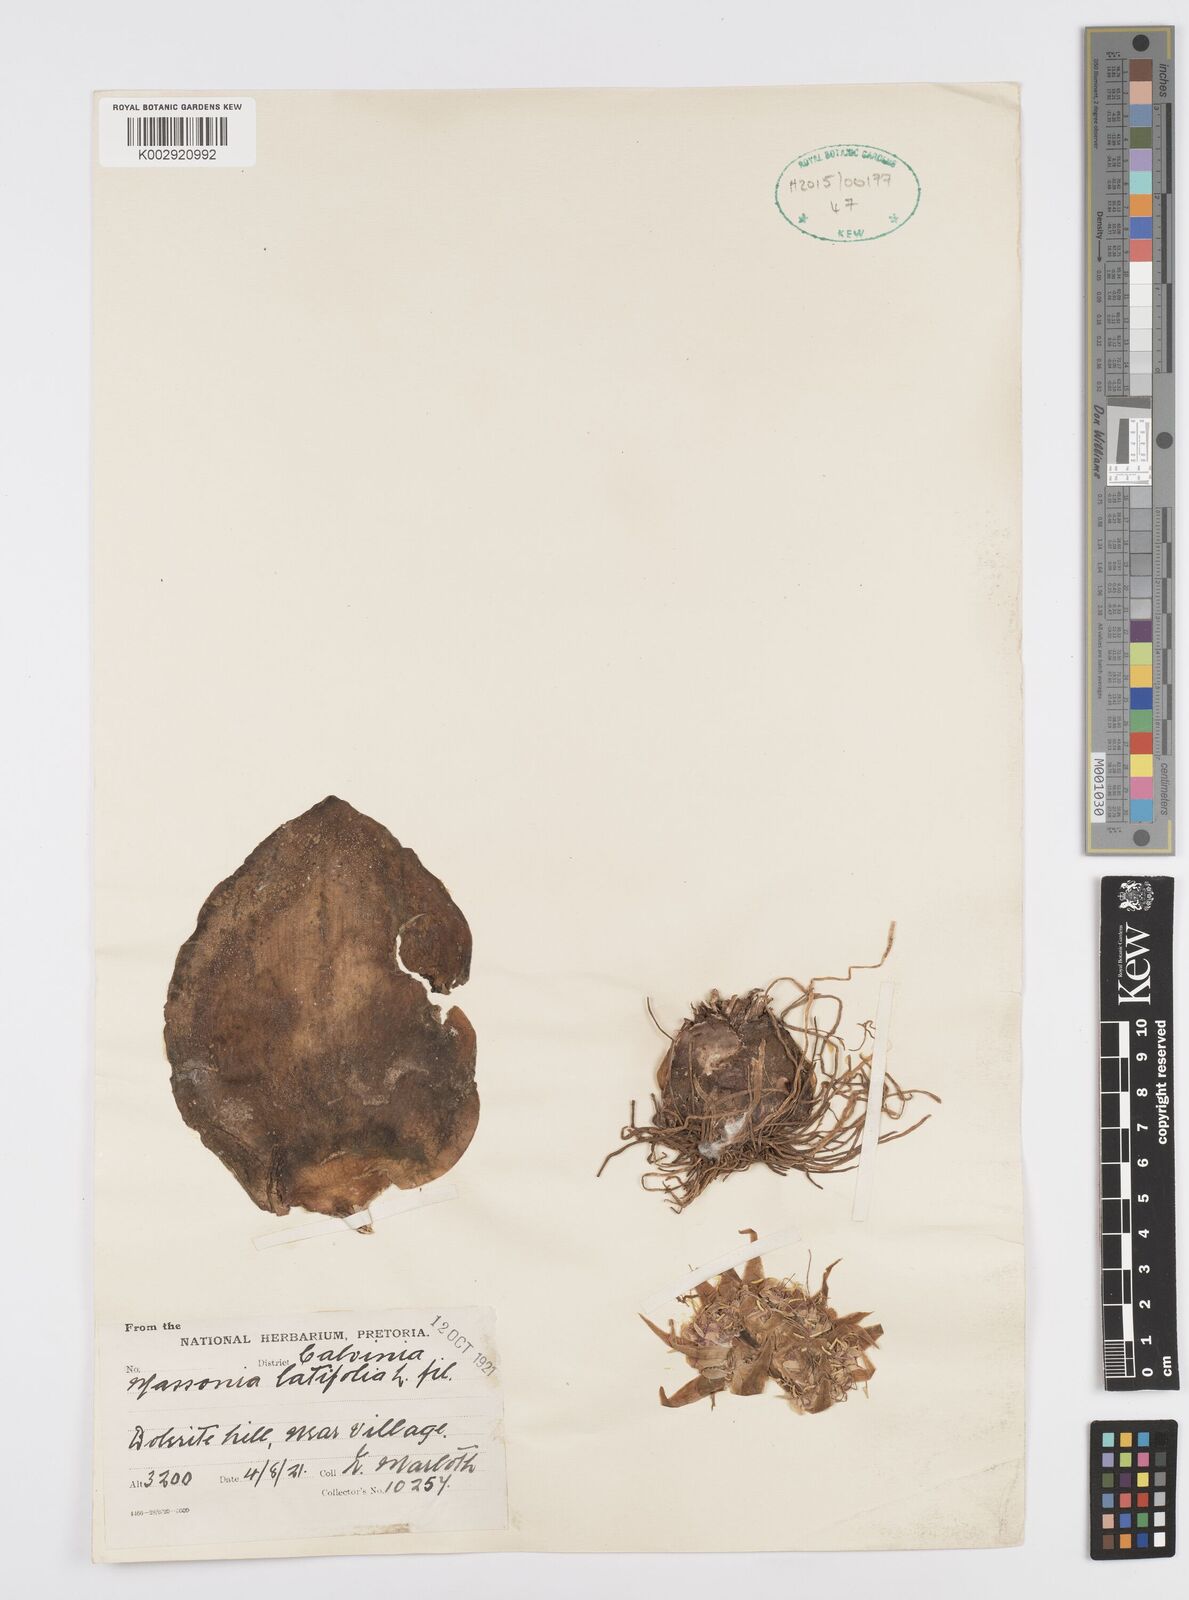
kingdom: Plantae
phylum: Tracheophyta
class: Liliopsida
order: Asparagales
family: Asparagaceae
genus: Massonia
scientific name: Massonia
